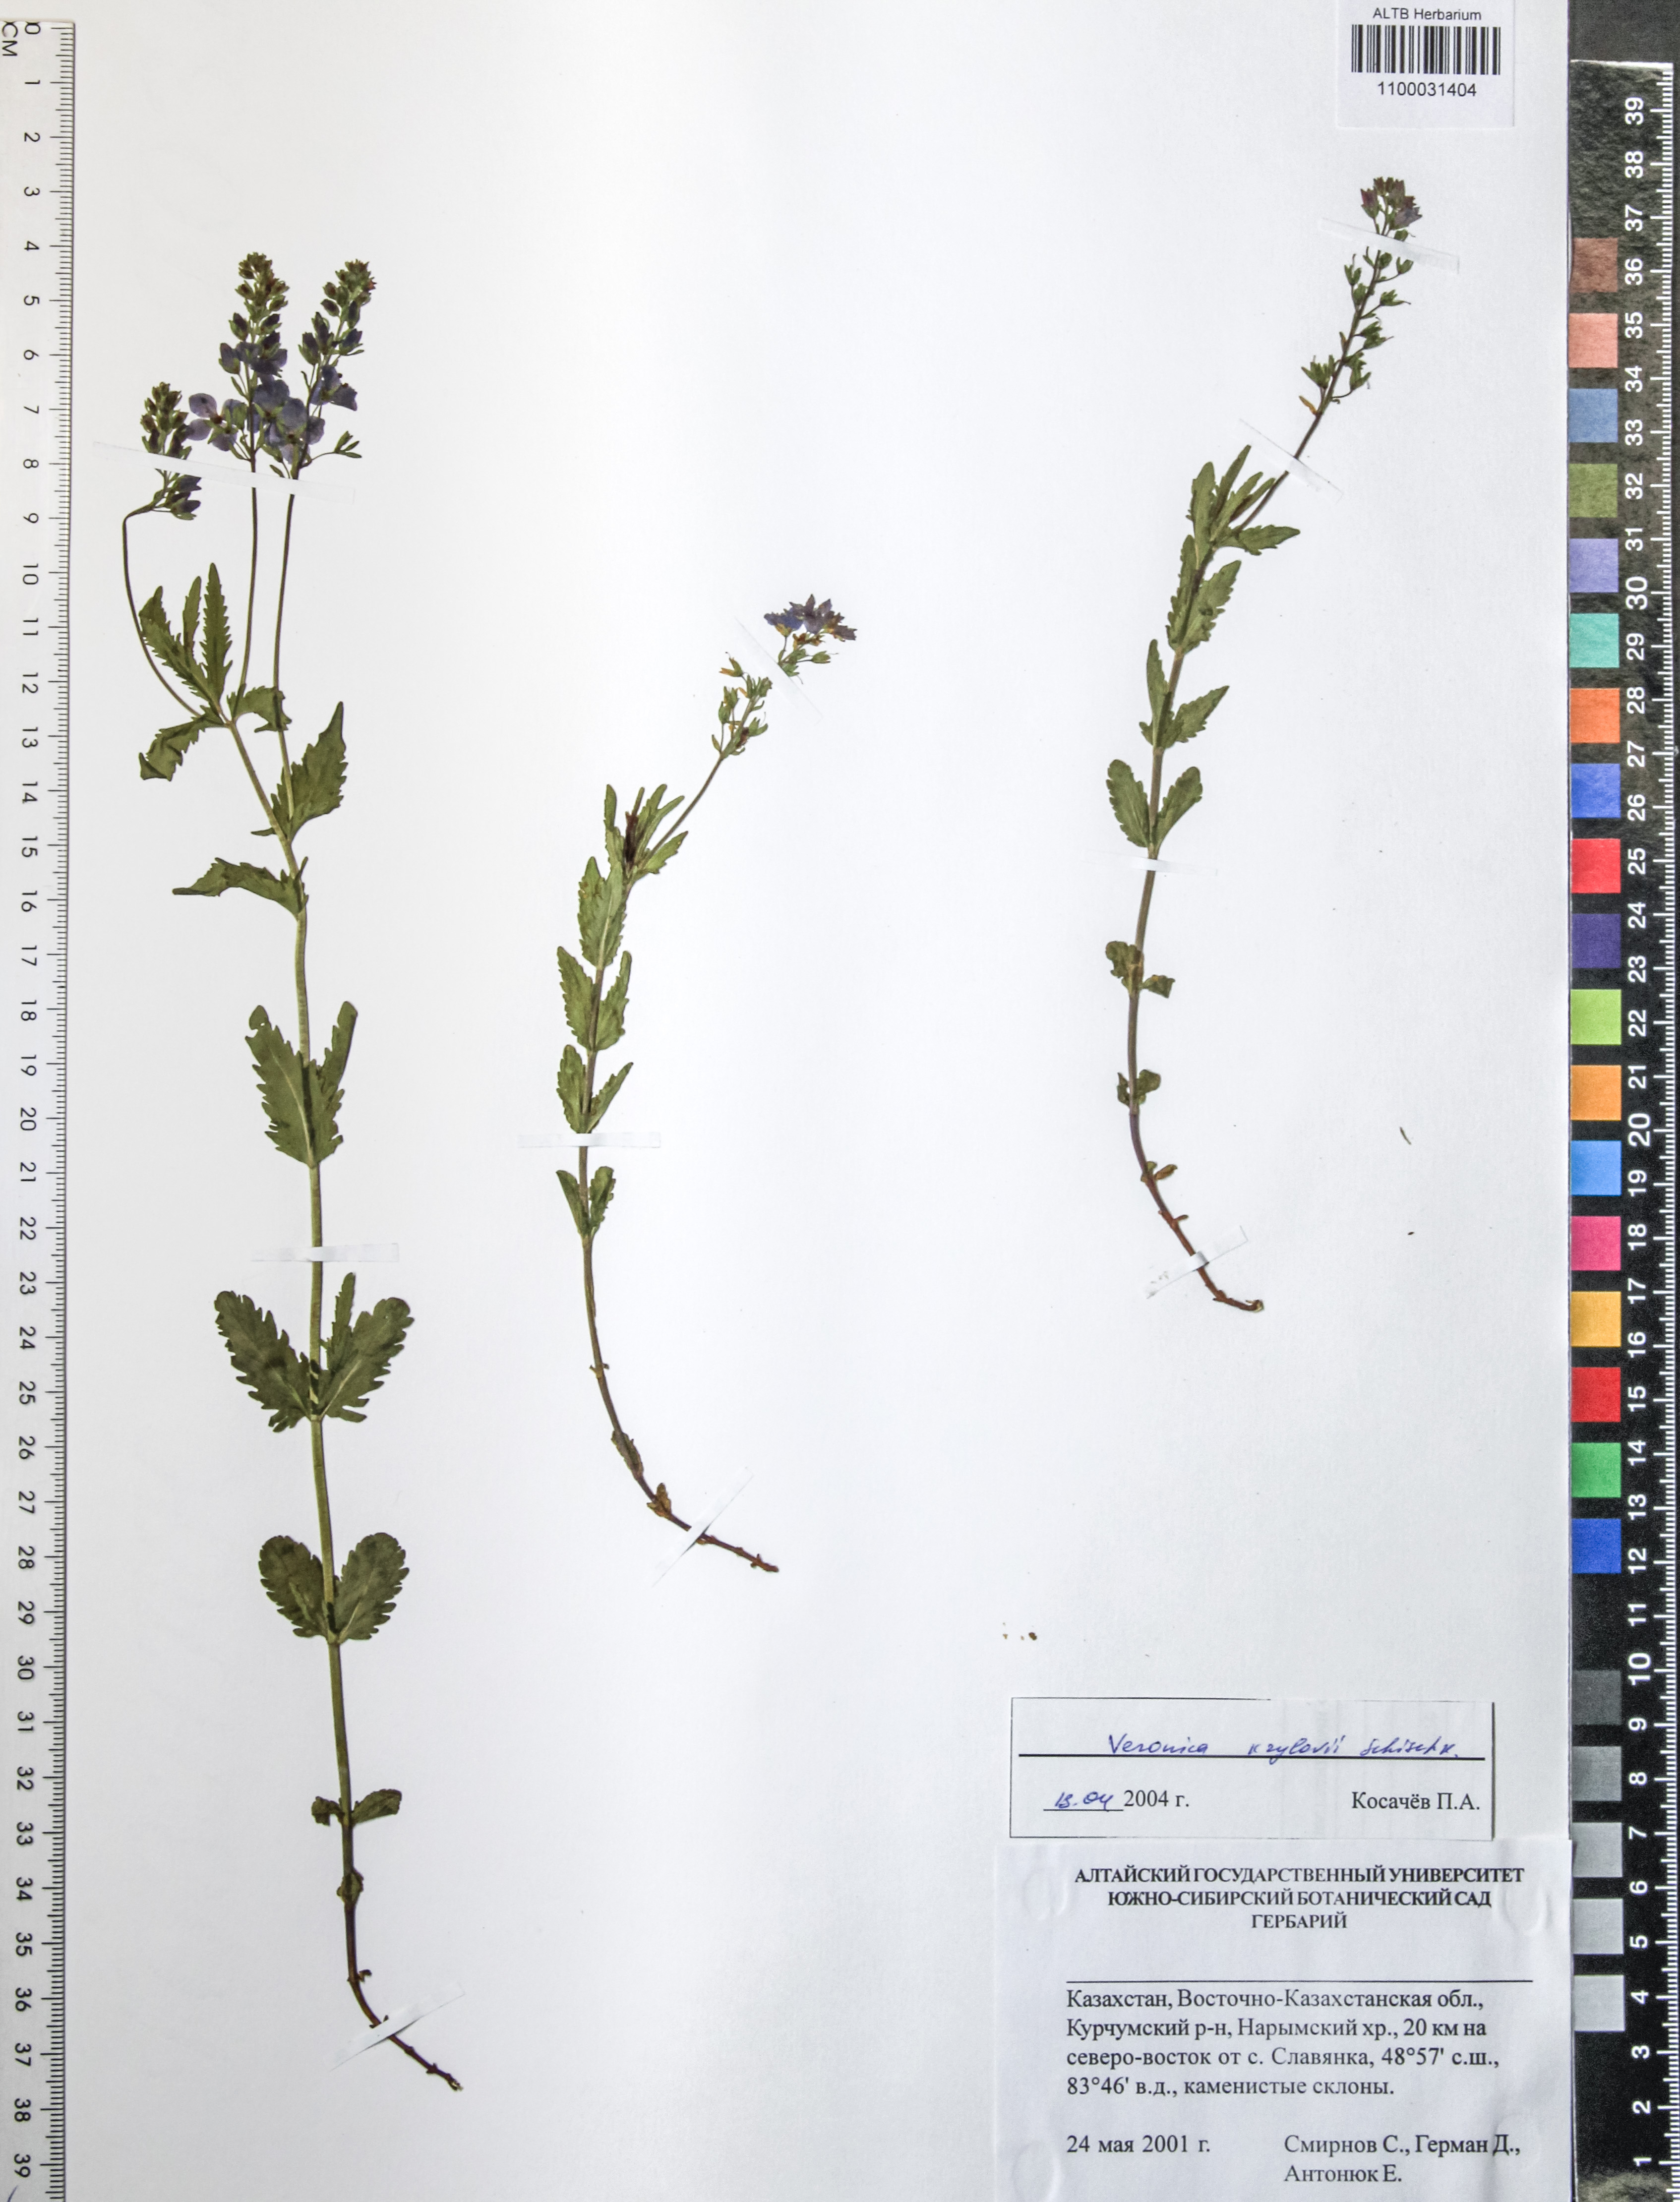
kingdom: Plantae
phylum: Tracheophyta
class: Magnoliopsida
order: Lamiales
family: Plantaginaceae
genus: Veronica
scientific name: Veronica krylovii
